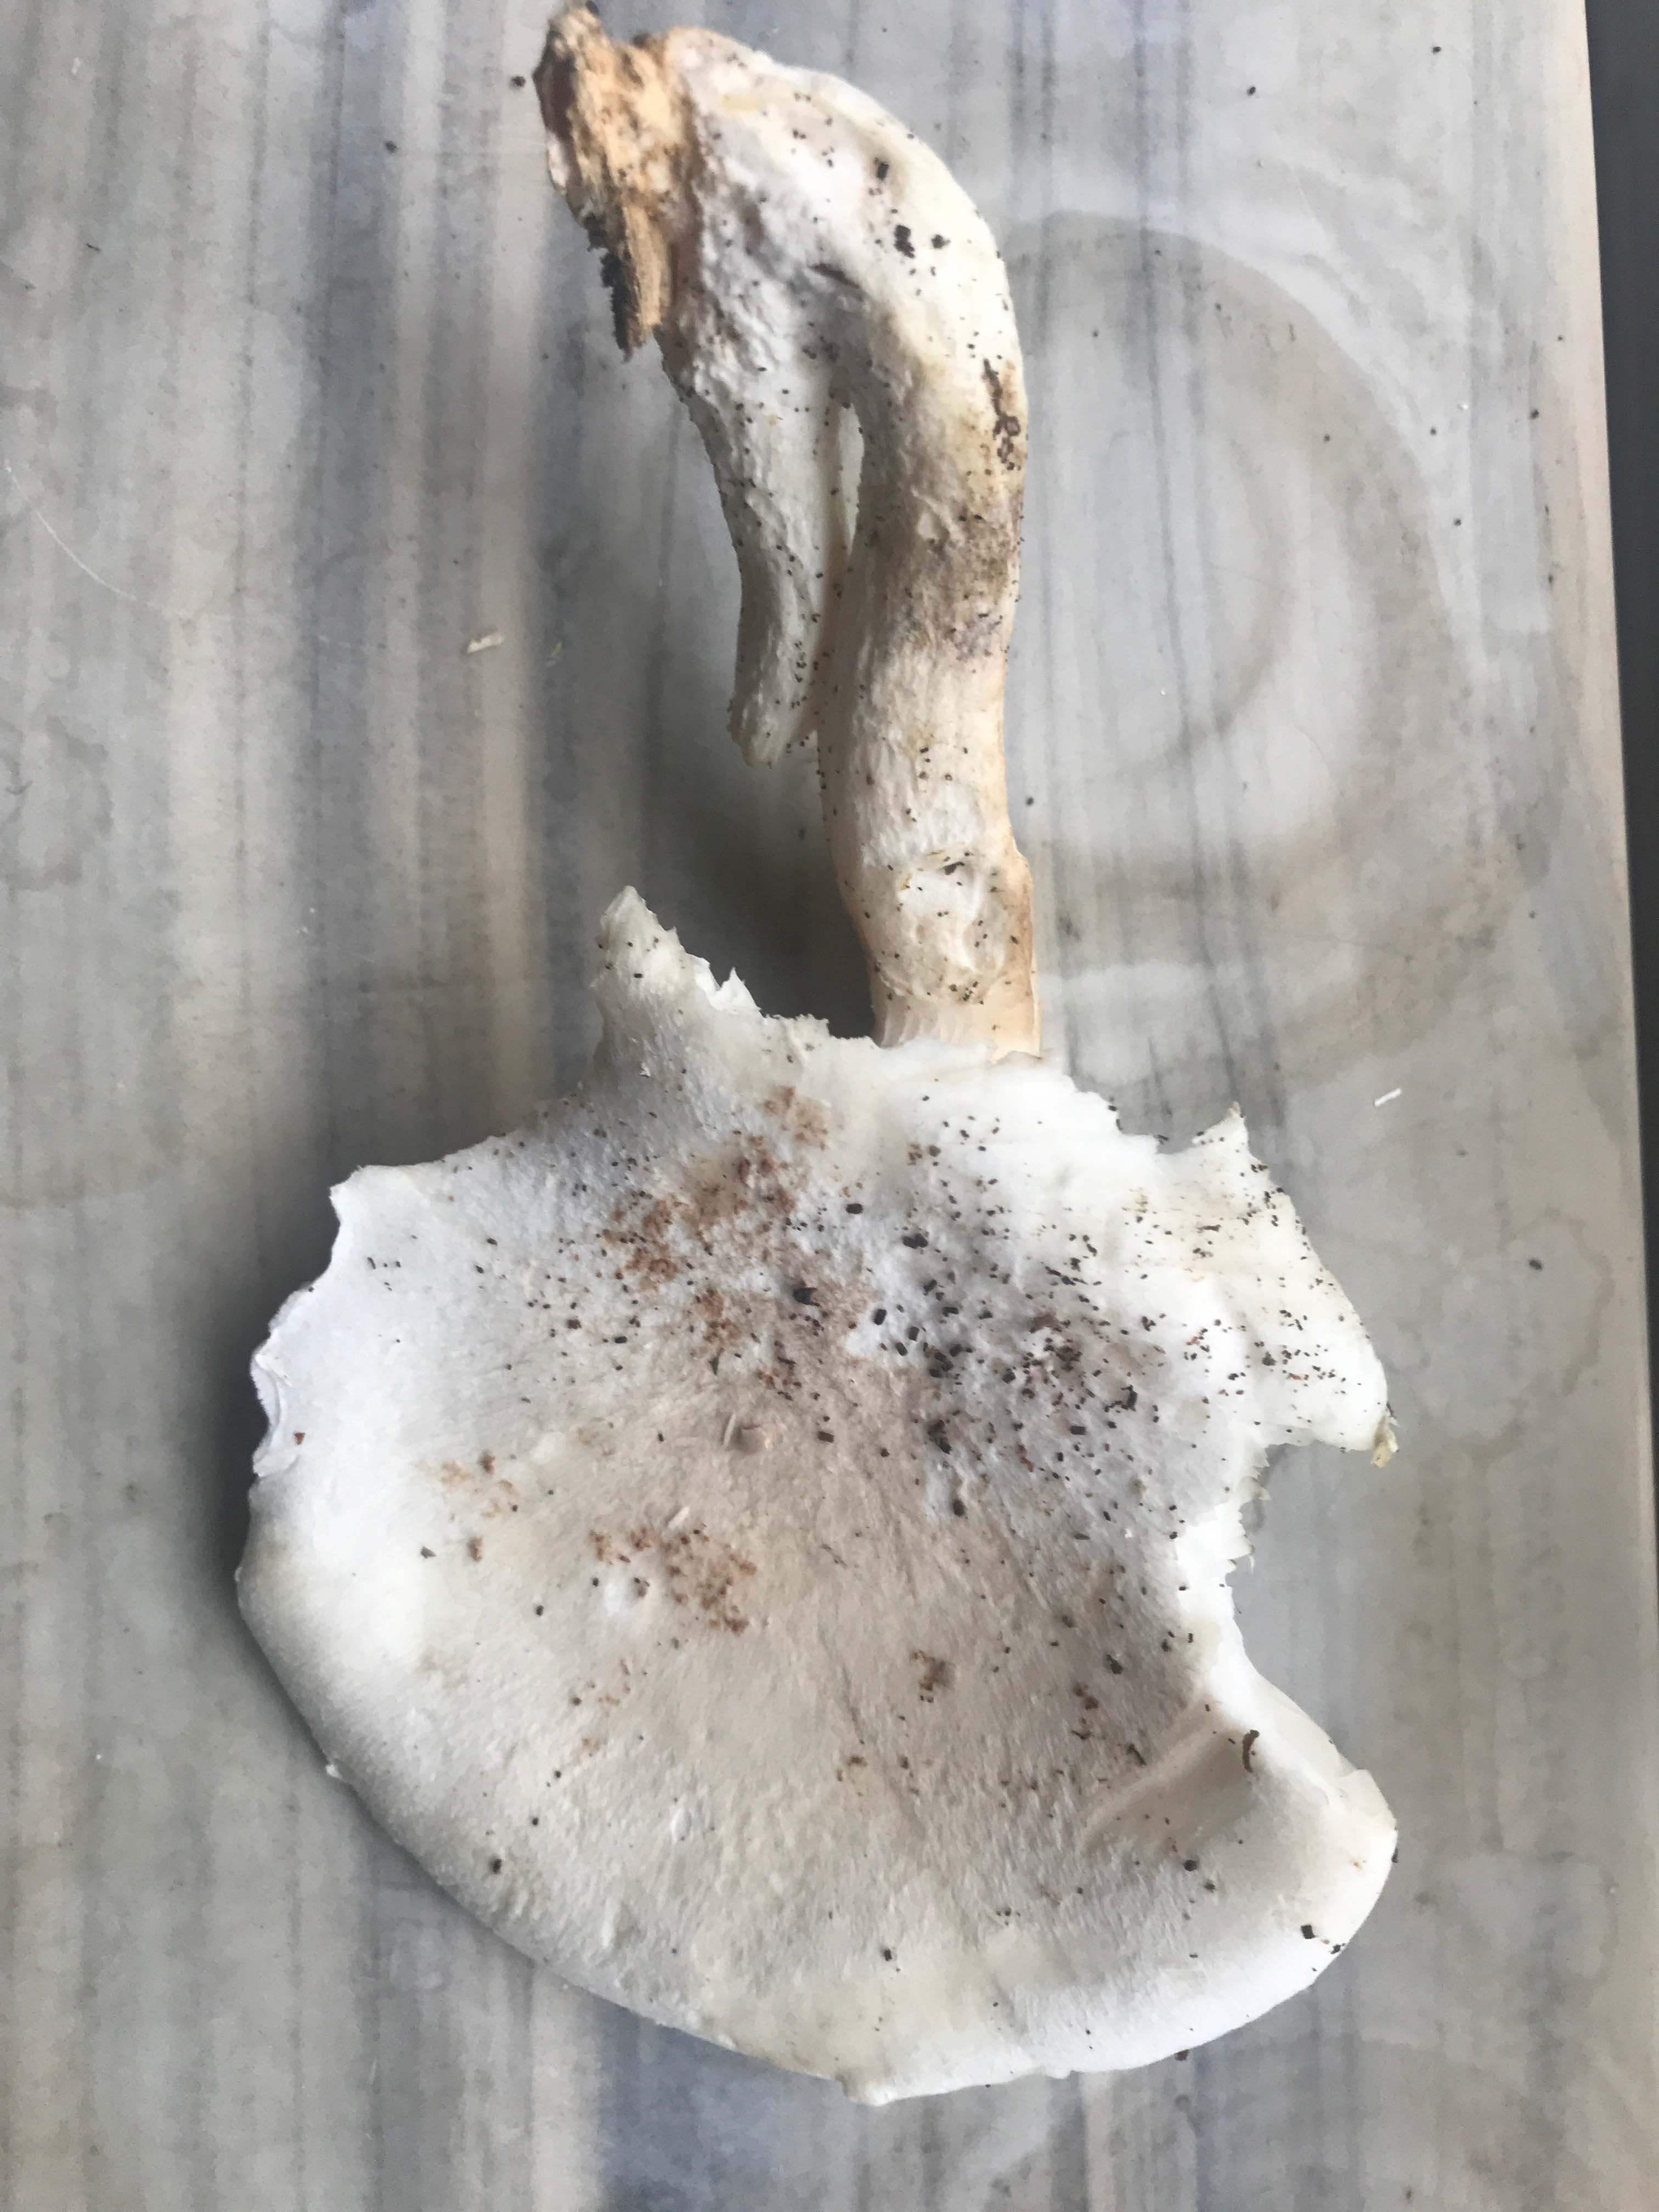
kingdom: Fungi
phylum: Basidiomycota
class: Agaricomycetes
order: Agaricales
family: Pleurotaceae
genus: Pleurotus
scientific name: Pleurotus dryinus
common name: korkagtig østershat
